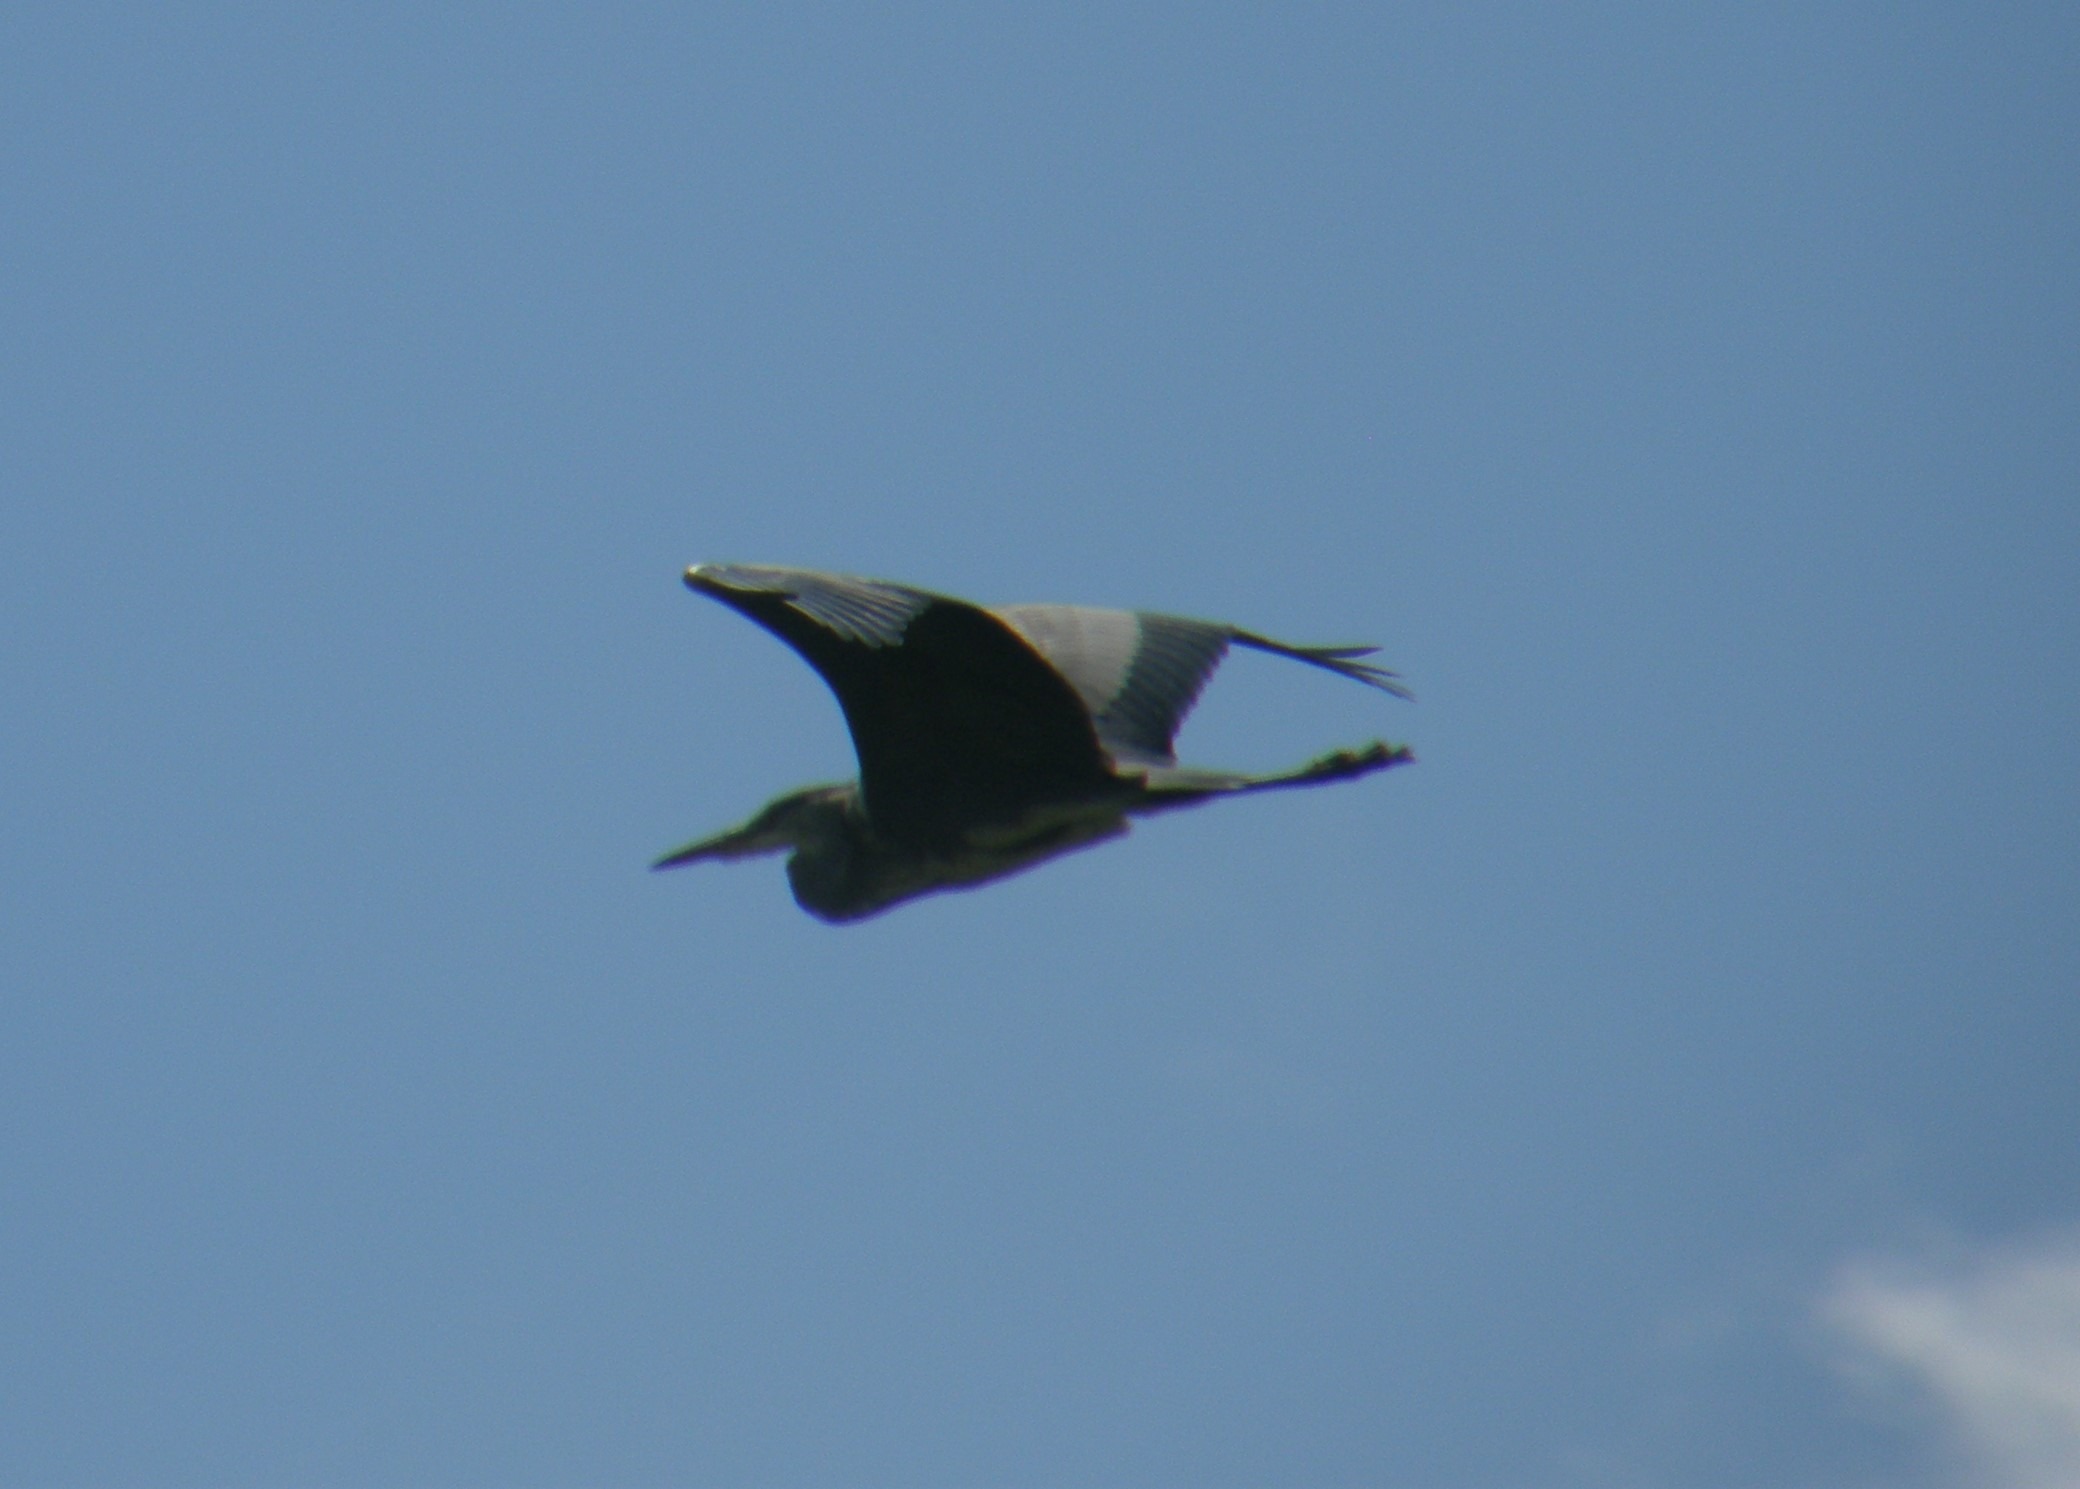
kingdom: Animalia
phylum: Chordata
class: Aves
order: Pelecaniformes
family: Ardeidae
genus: Ardea
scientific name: Ardea cinerea
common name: Fiskehejre
